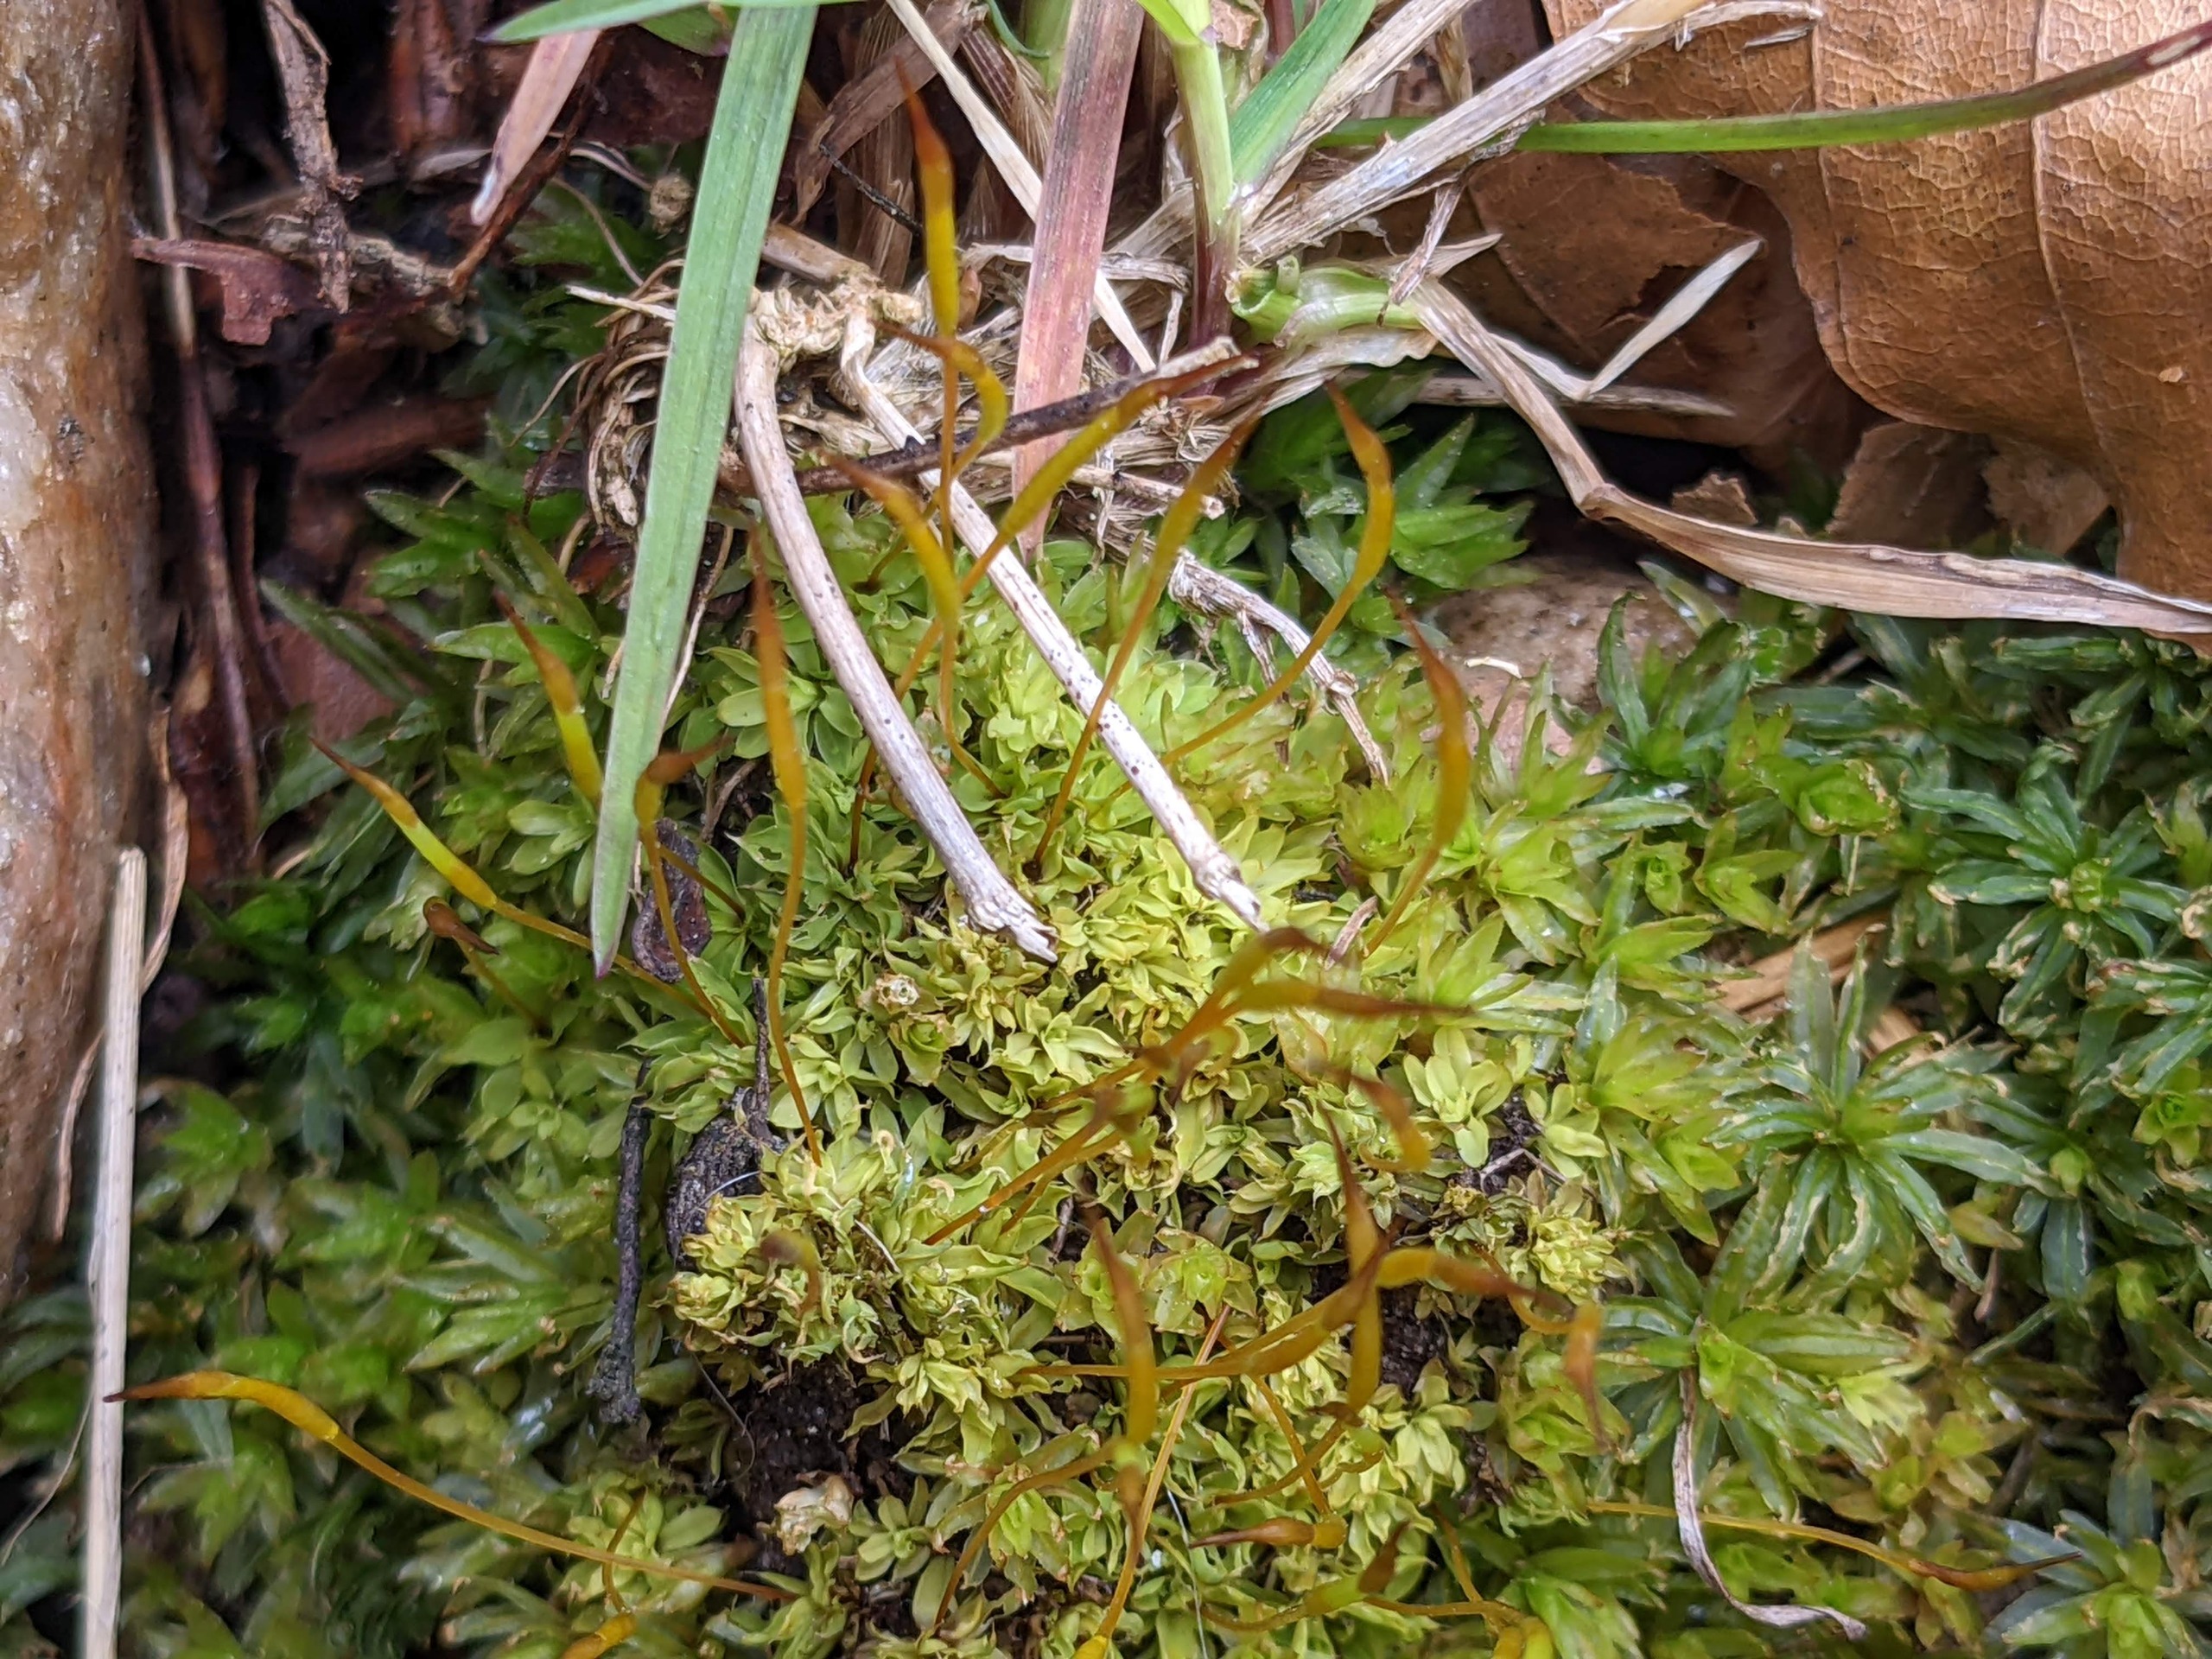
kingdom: Plantae
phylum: Bryophyta
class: Bryopsida
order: Pottiales
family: Pottiaceae
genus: Tortula
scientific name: Tortula subulata
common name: Syl-snotand
